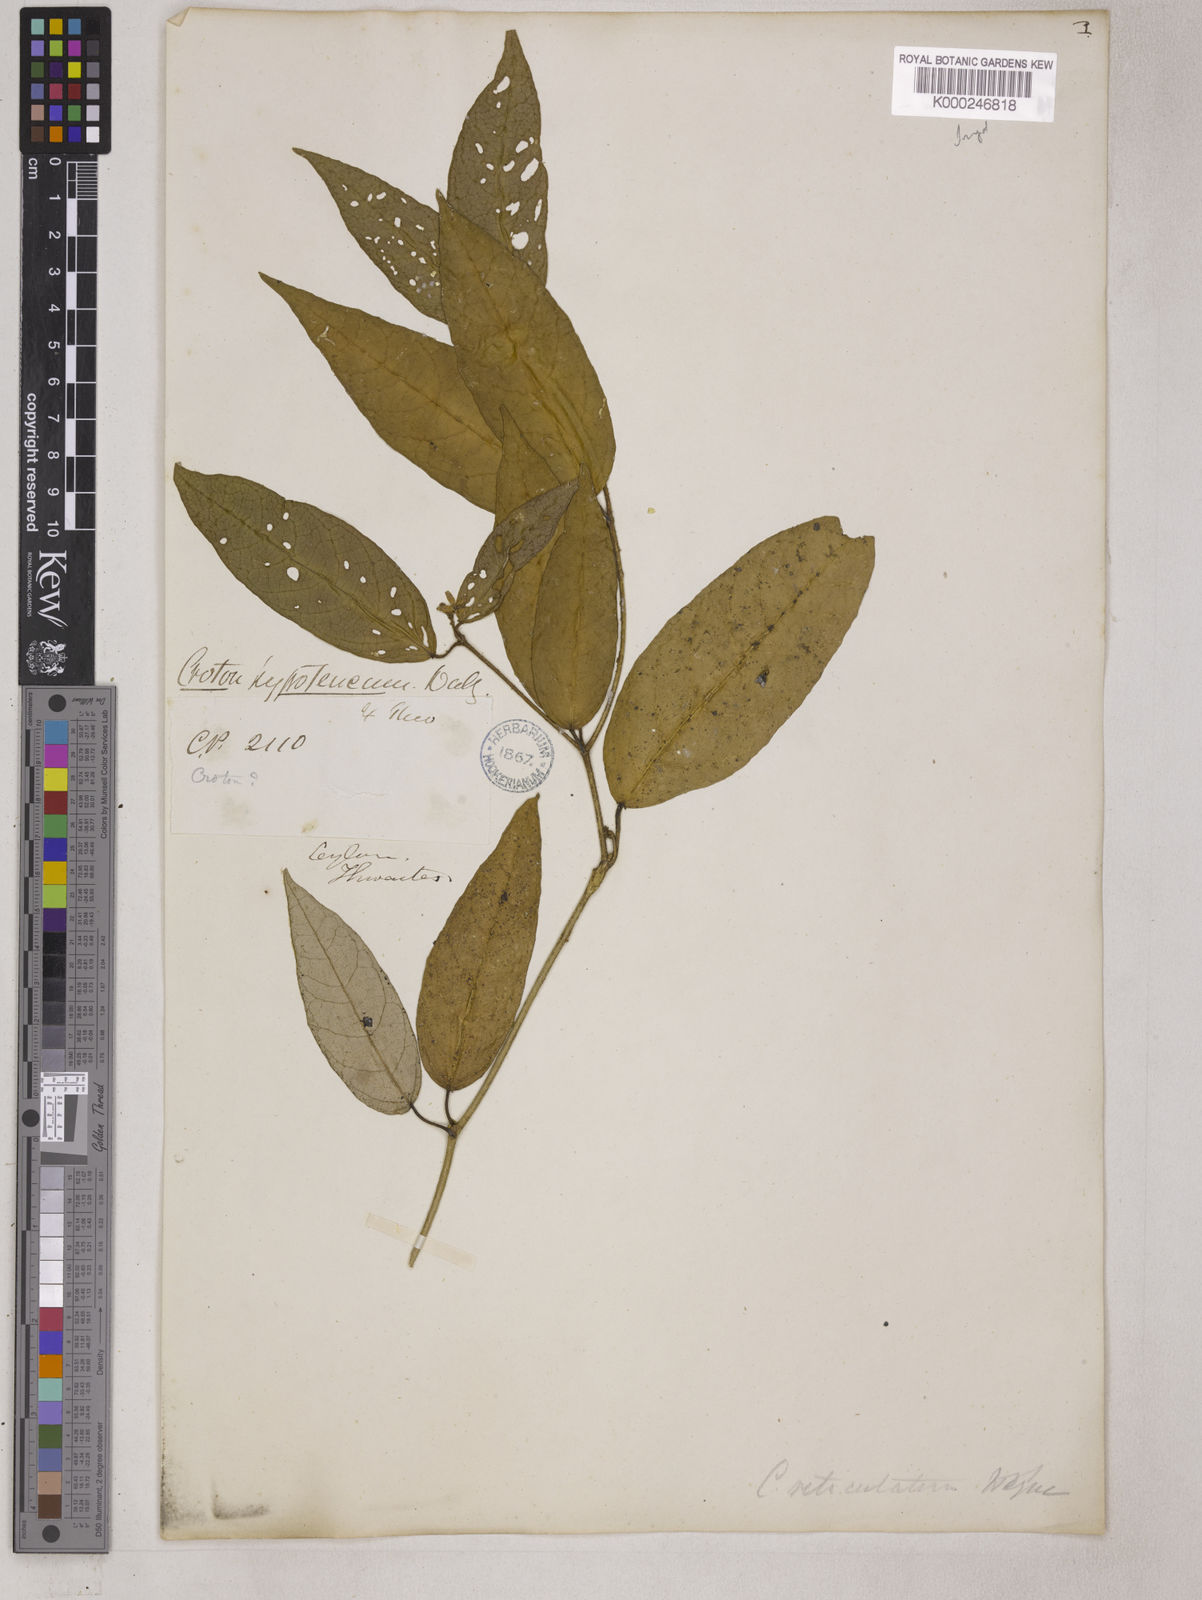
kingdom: Plantae
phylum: Tracheophyta
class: Magnoliopsida
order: Malpighiales
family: Euphorbiaceae
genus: Croton
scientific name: Croton
